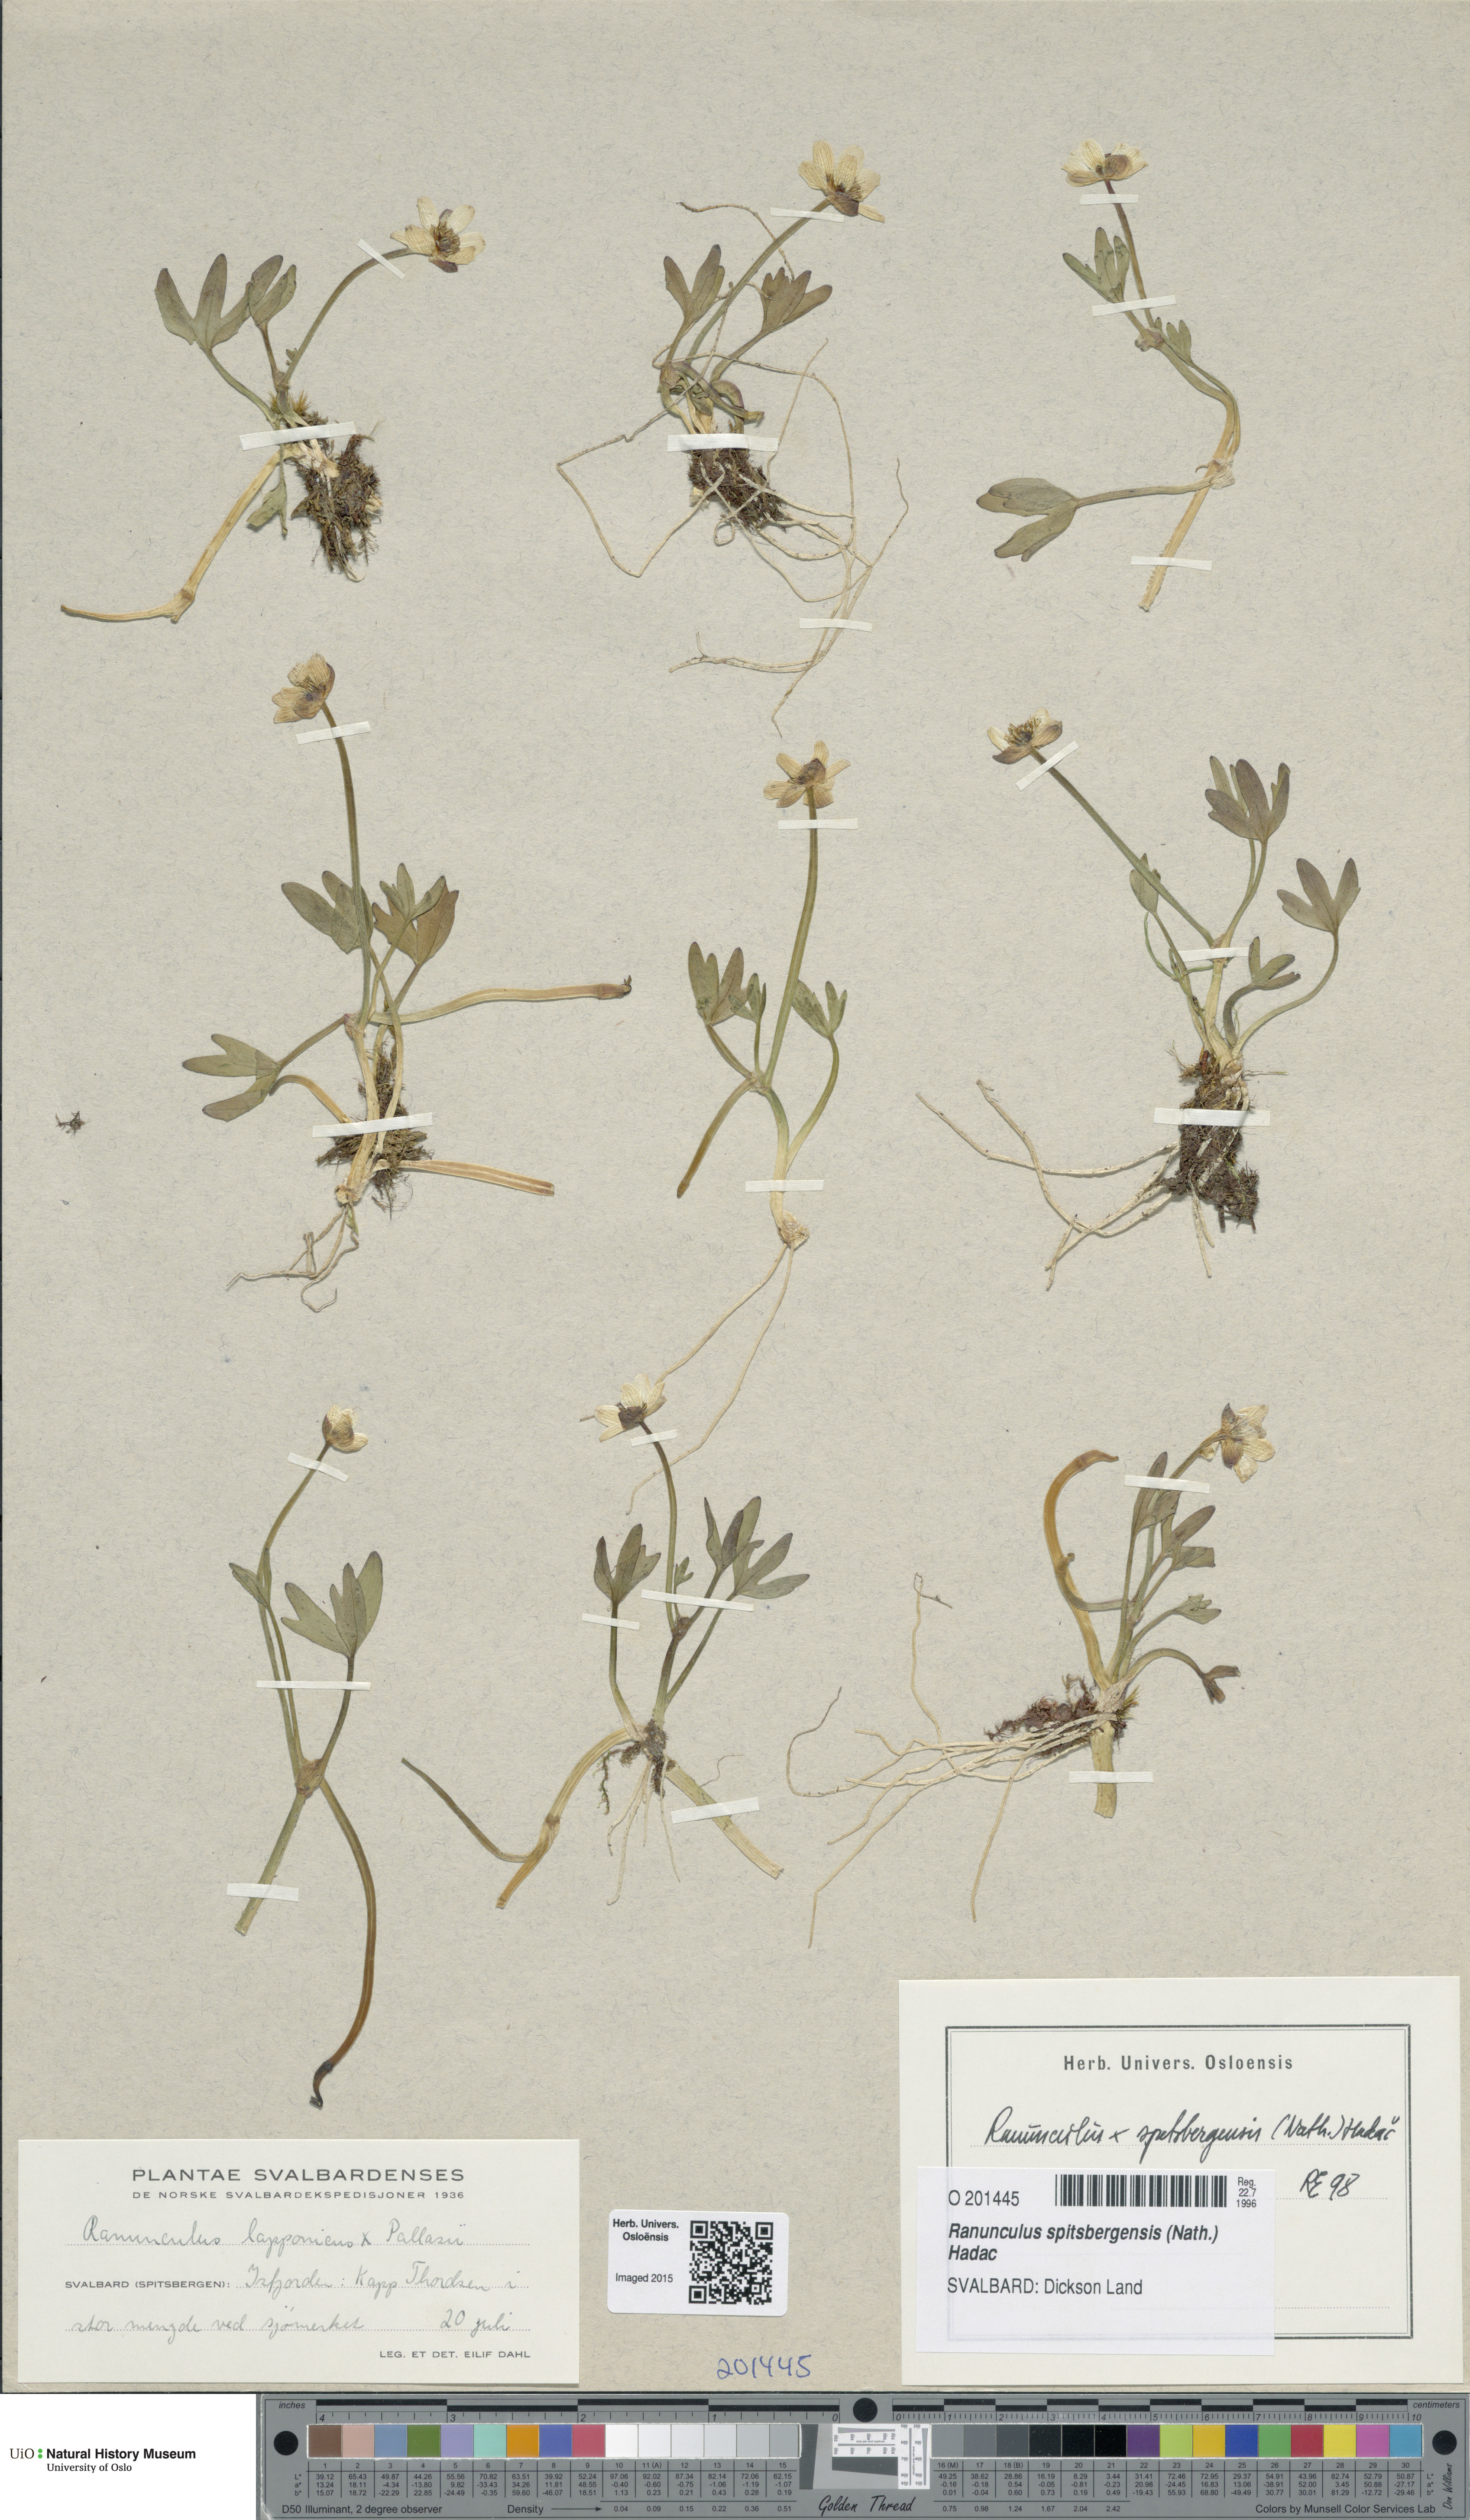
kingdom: Plantae
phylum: Tracheophyta
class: Magnoliopsida
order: Ranunculales
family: Ranunculaceae
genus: Coptidium
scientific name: Coptidium spitsbergense
